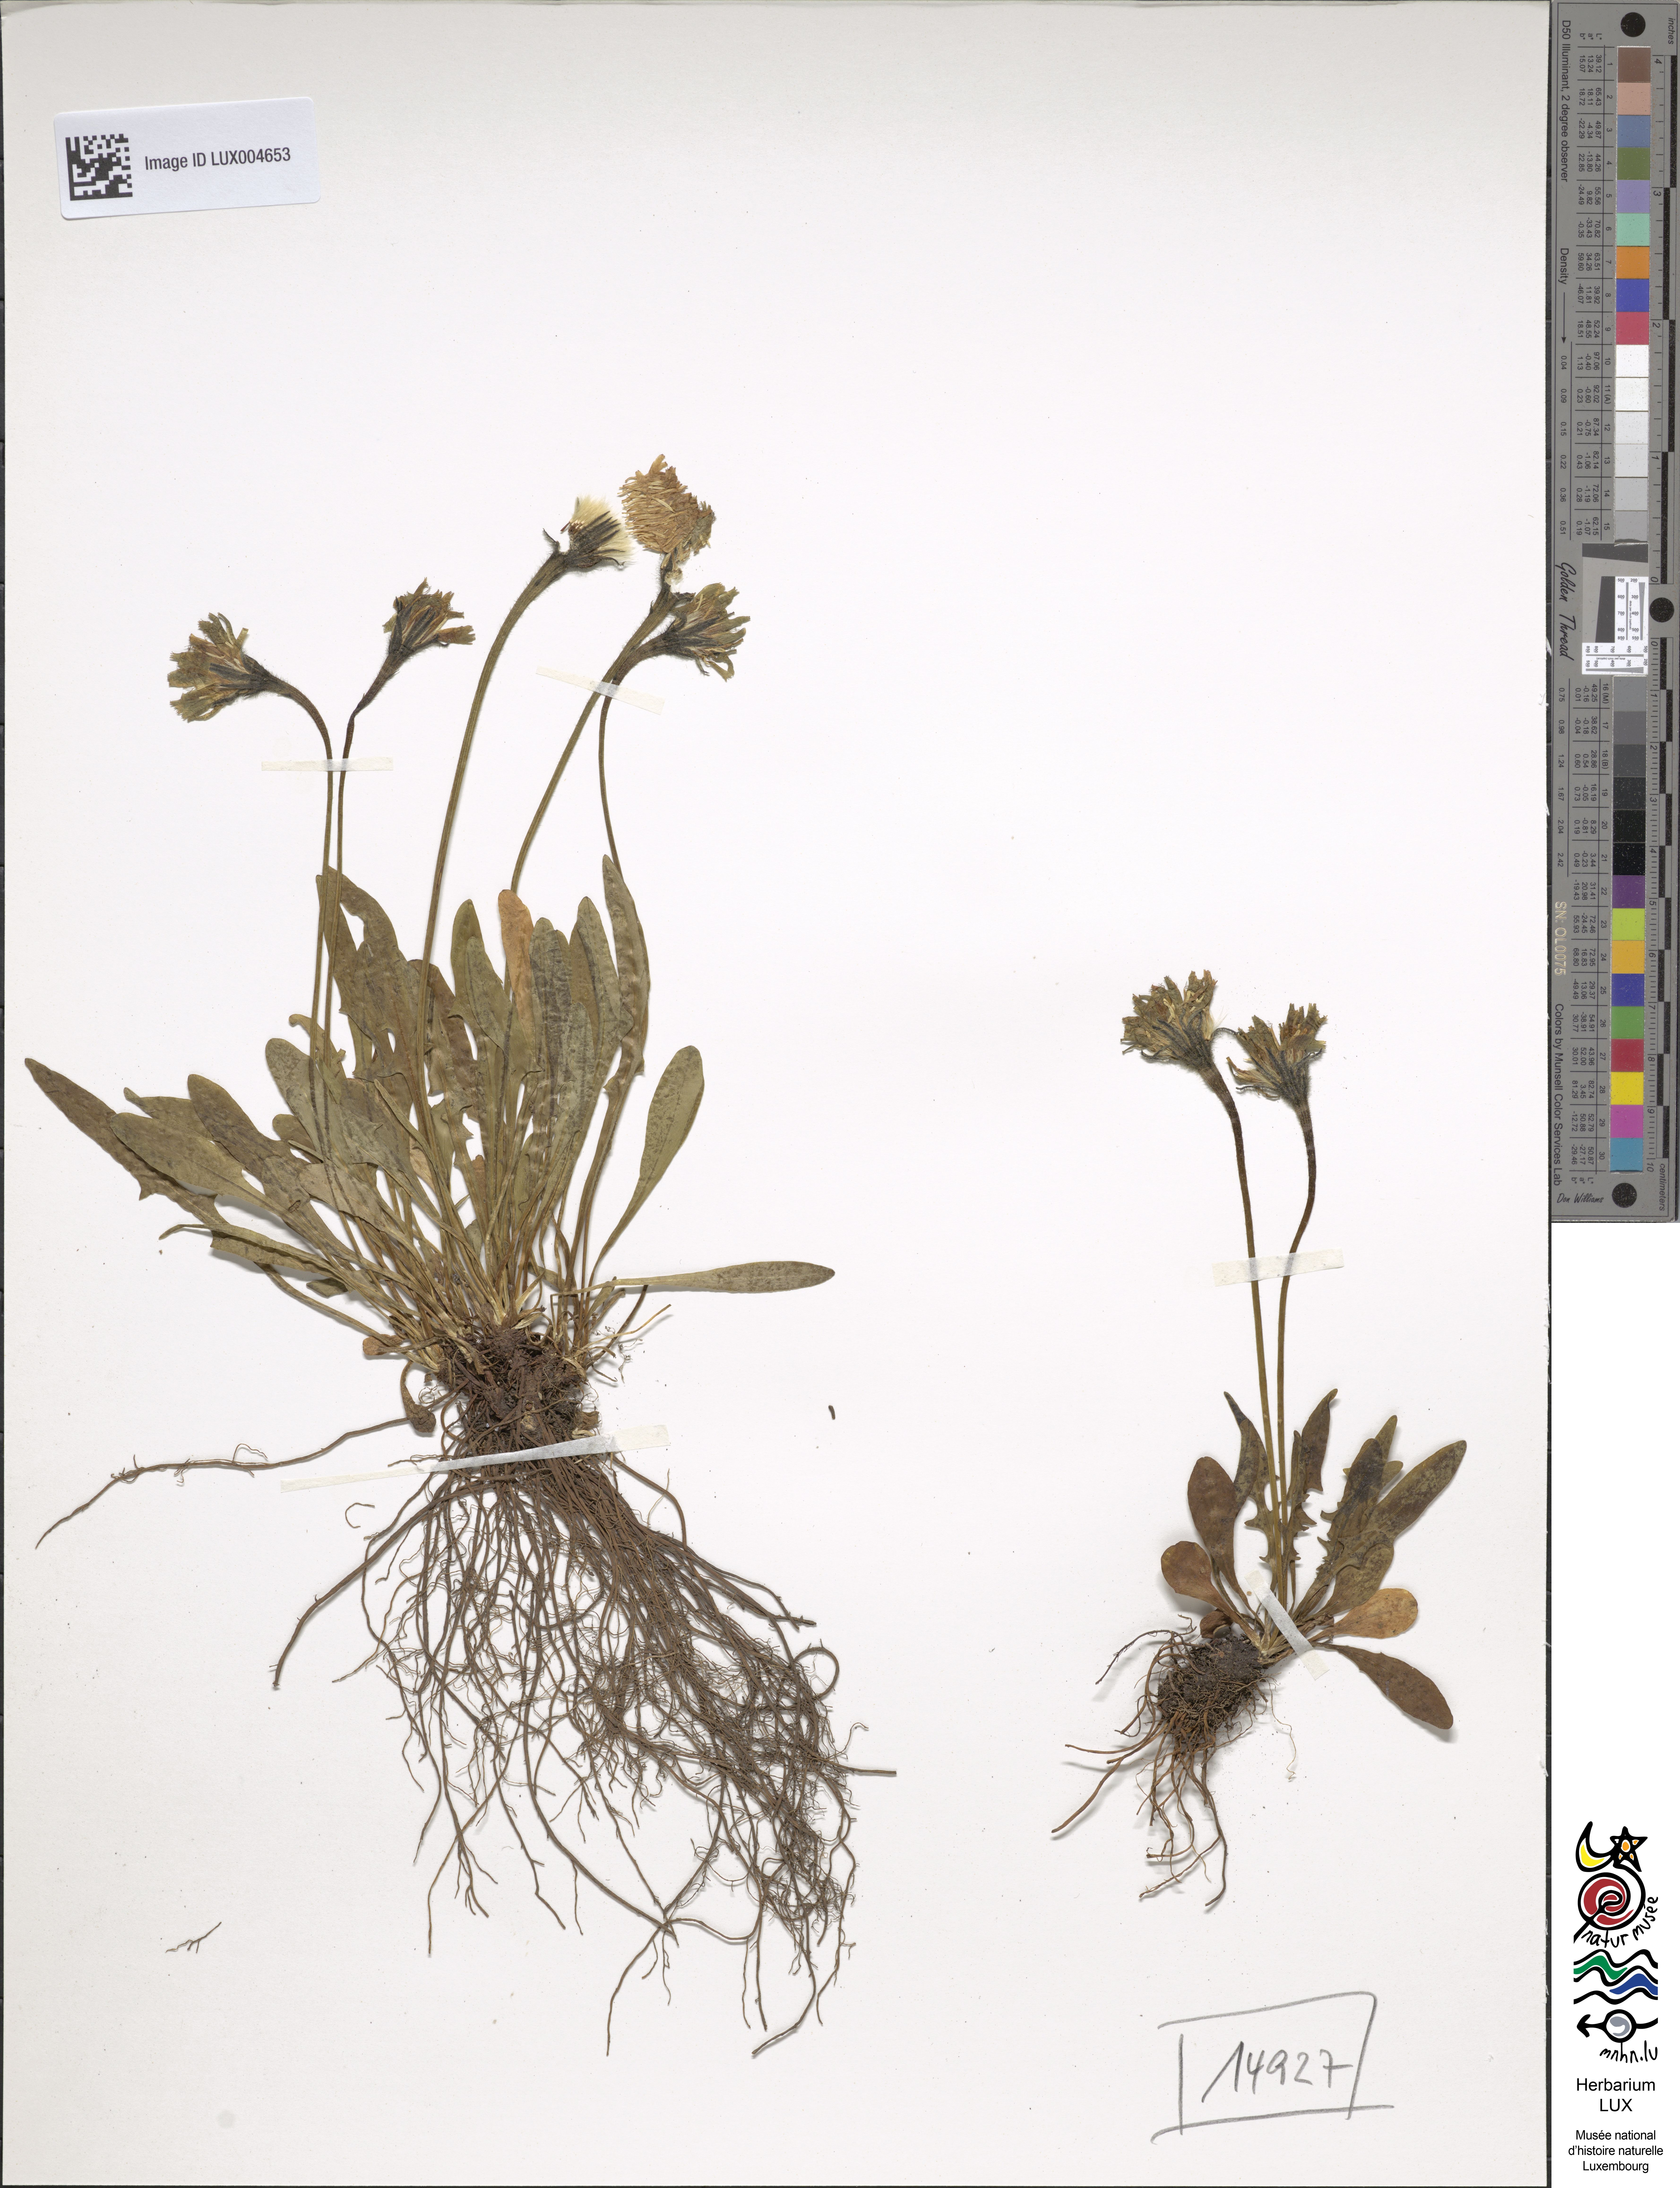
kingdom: Plantae
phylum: Tracheophyta
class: Magnoliopsida
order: Asterales
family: Asteraceae
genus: Scorzoneroides
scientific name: Scorzoneroides montana
